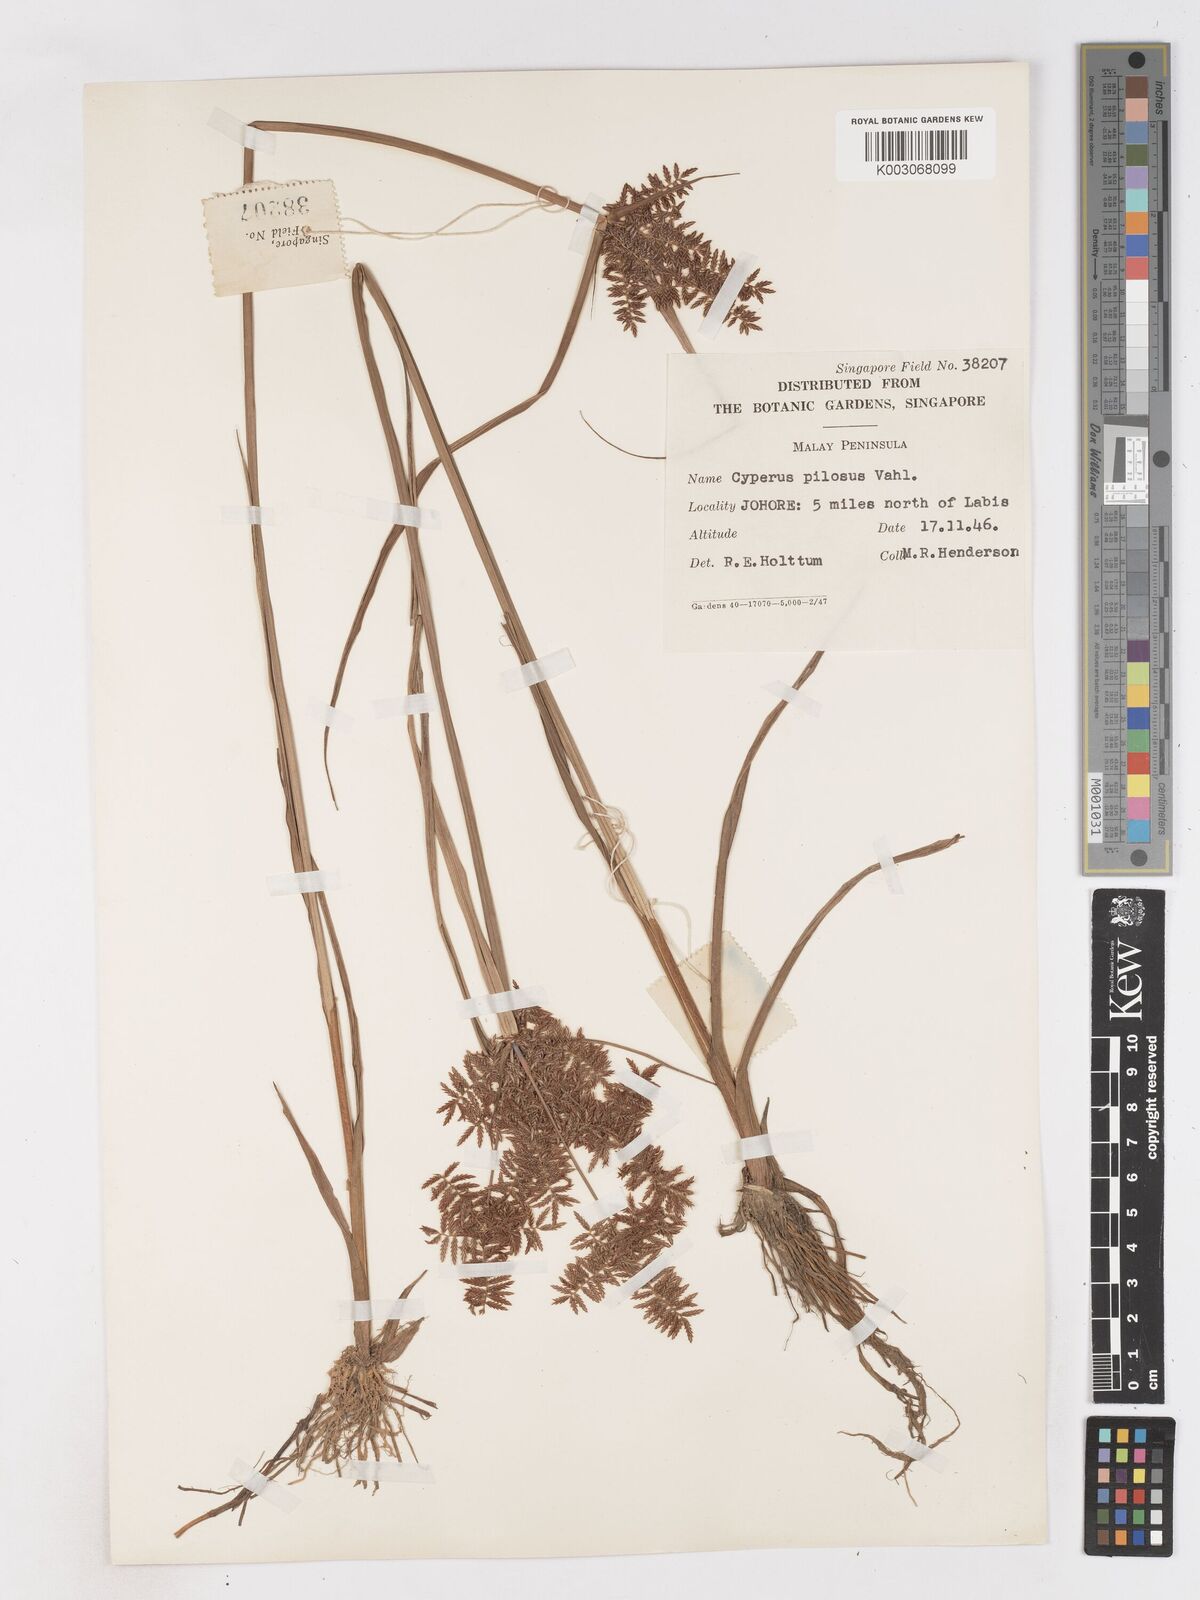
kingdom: Plantae
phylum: Tracheophyta
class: Liliopsida
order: Poales
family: Cyperaceae
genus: Cyperus
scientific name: Cyperus pilosus
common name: Fuzzy flatsedge
